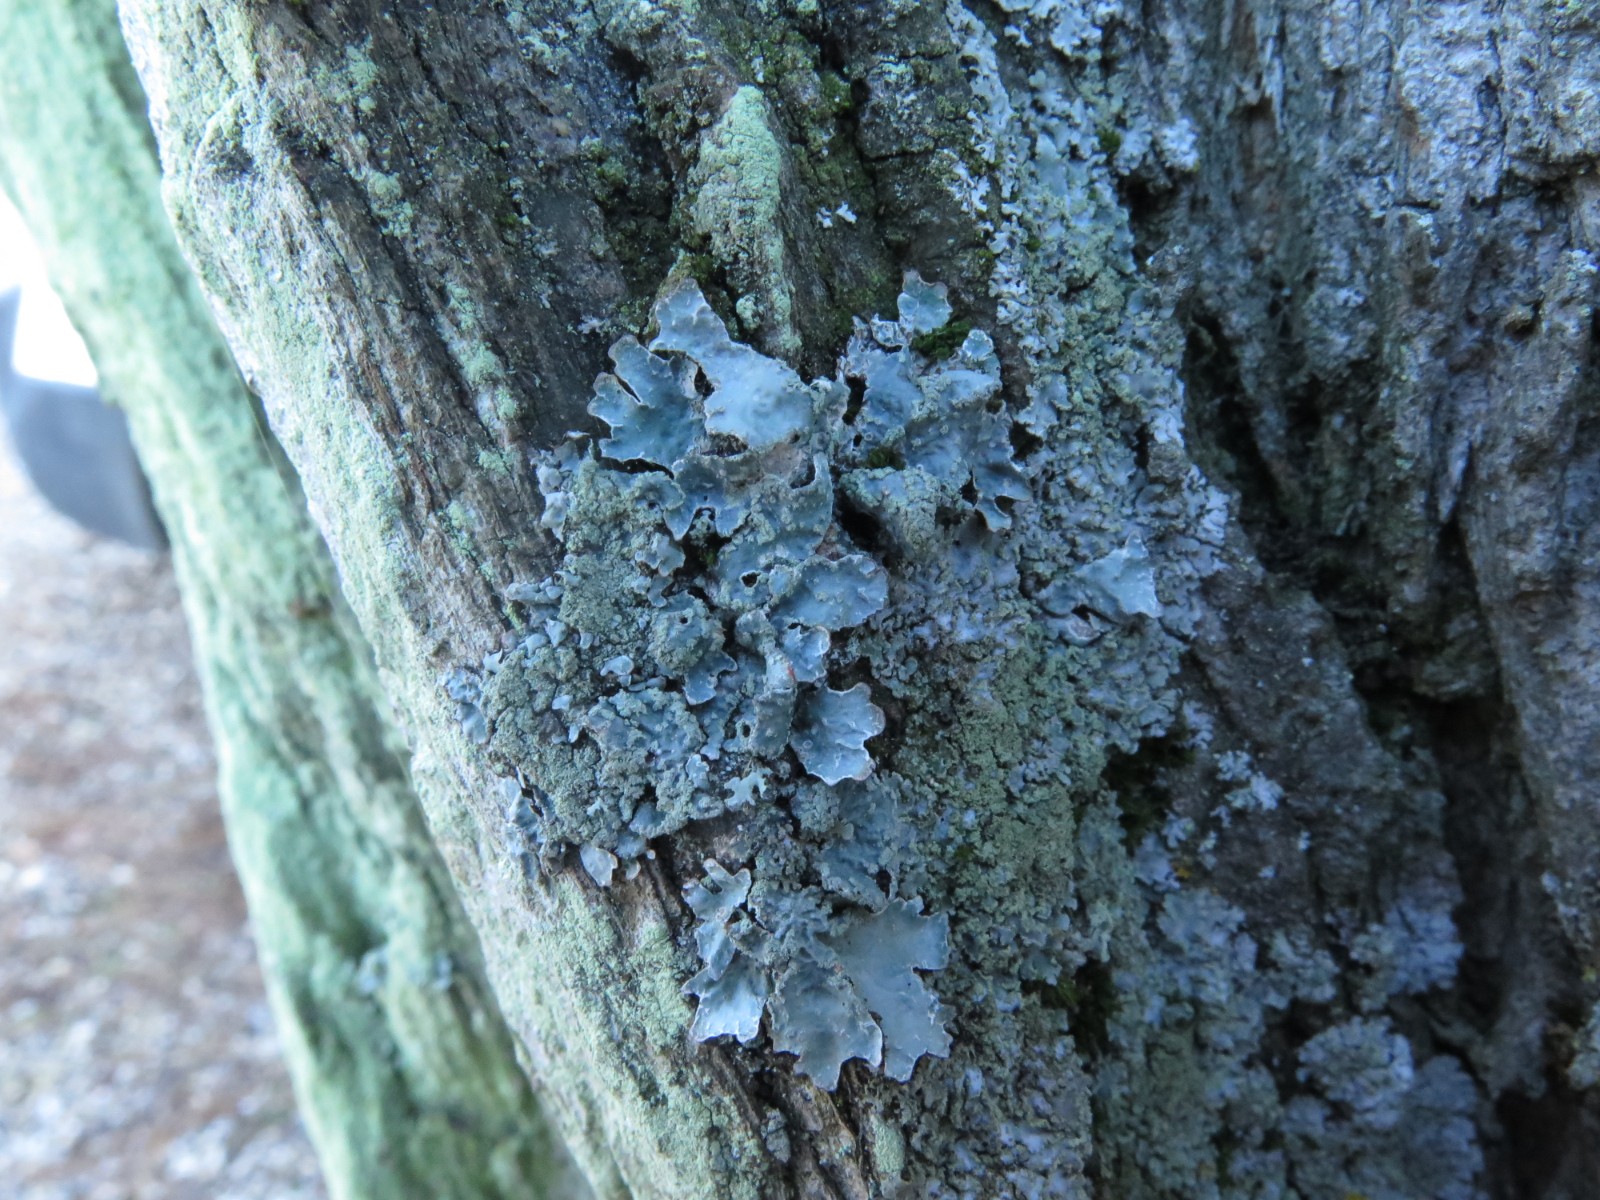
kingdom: Fungi
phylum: Ascomycota
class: Lecanoromycetes
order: Lecanorales
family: Parmeliaceae
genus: Parmelia
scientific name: Parmelia sulcata
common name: rynket skållav
